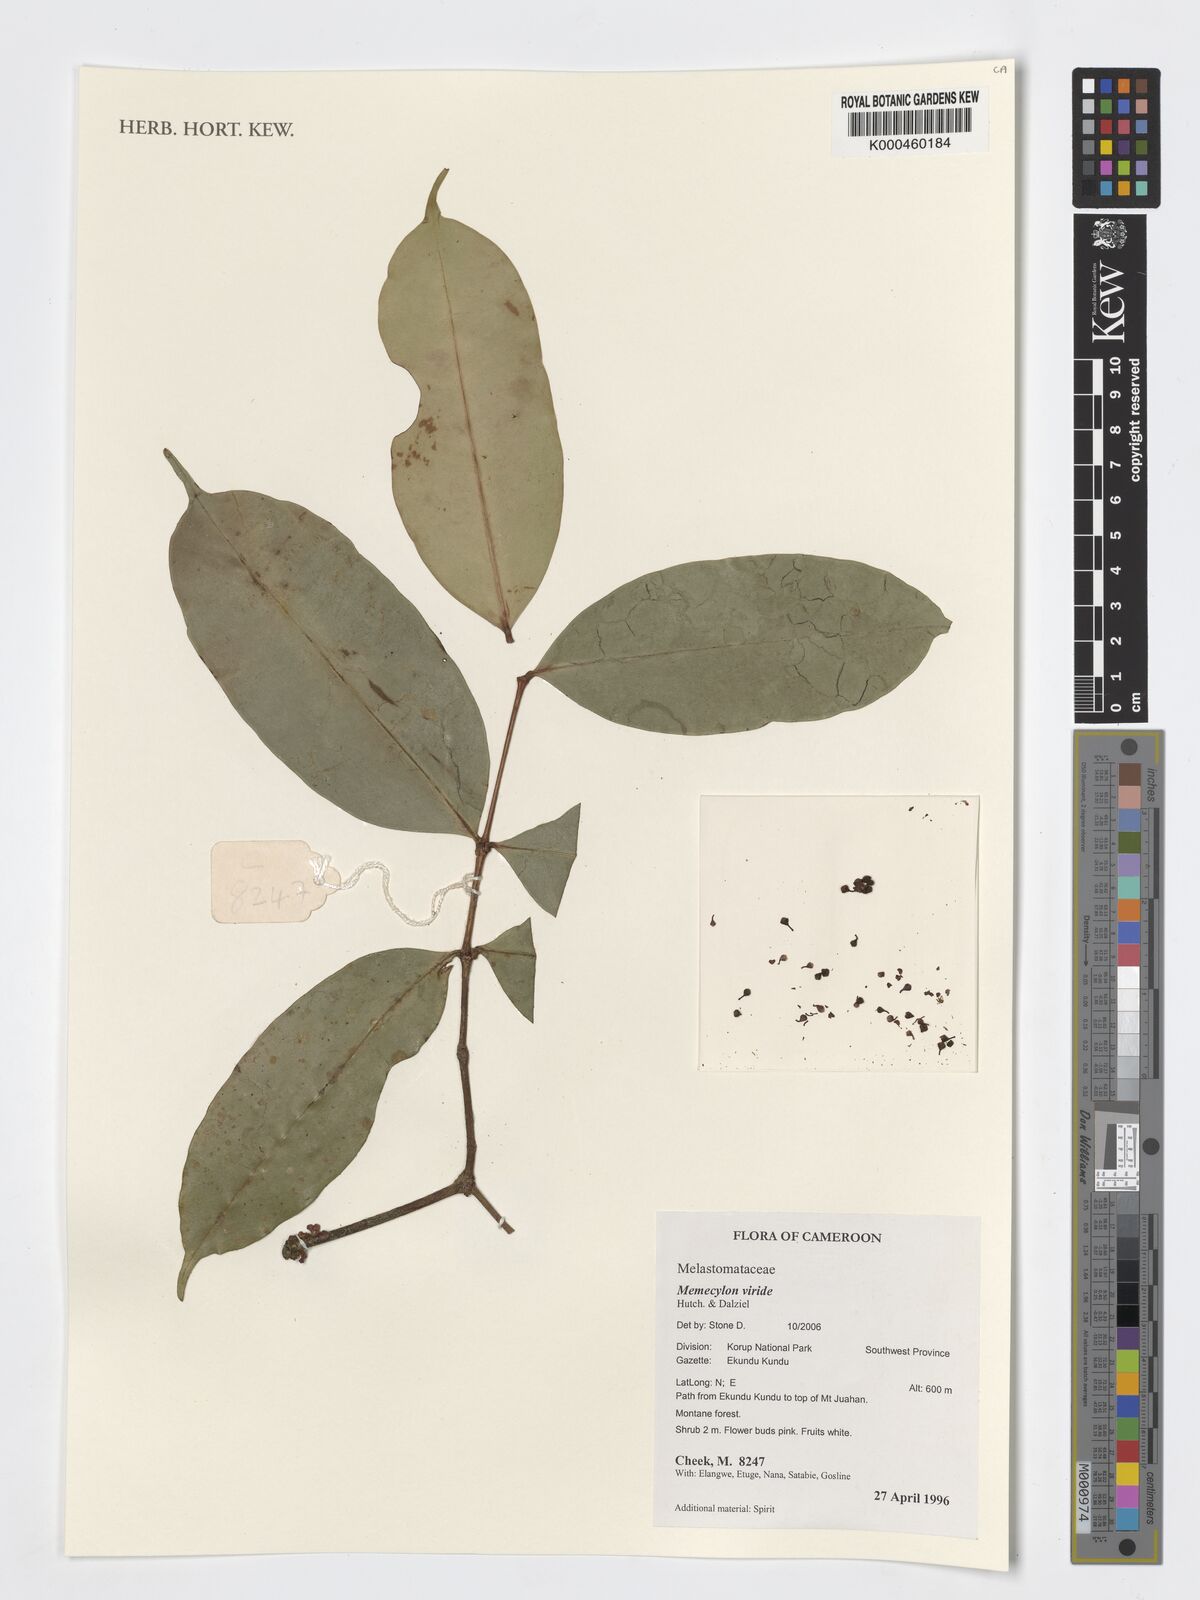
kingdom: Plantae
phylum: Tracheophyta
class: Magnoliopsida
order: Myrtales
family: Melastomataceae
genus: Memecylon
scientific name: Memecylon viride
